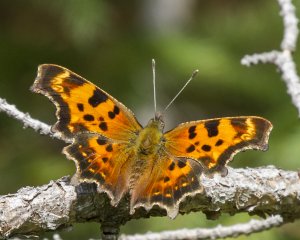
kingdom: Animalia
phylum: Arthropoda
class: Insecta
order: Lepidoptera
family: Nymphalidae
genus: Polygonia
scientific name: Polygonia faunus
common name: Green Comma
